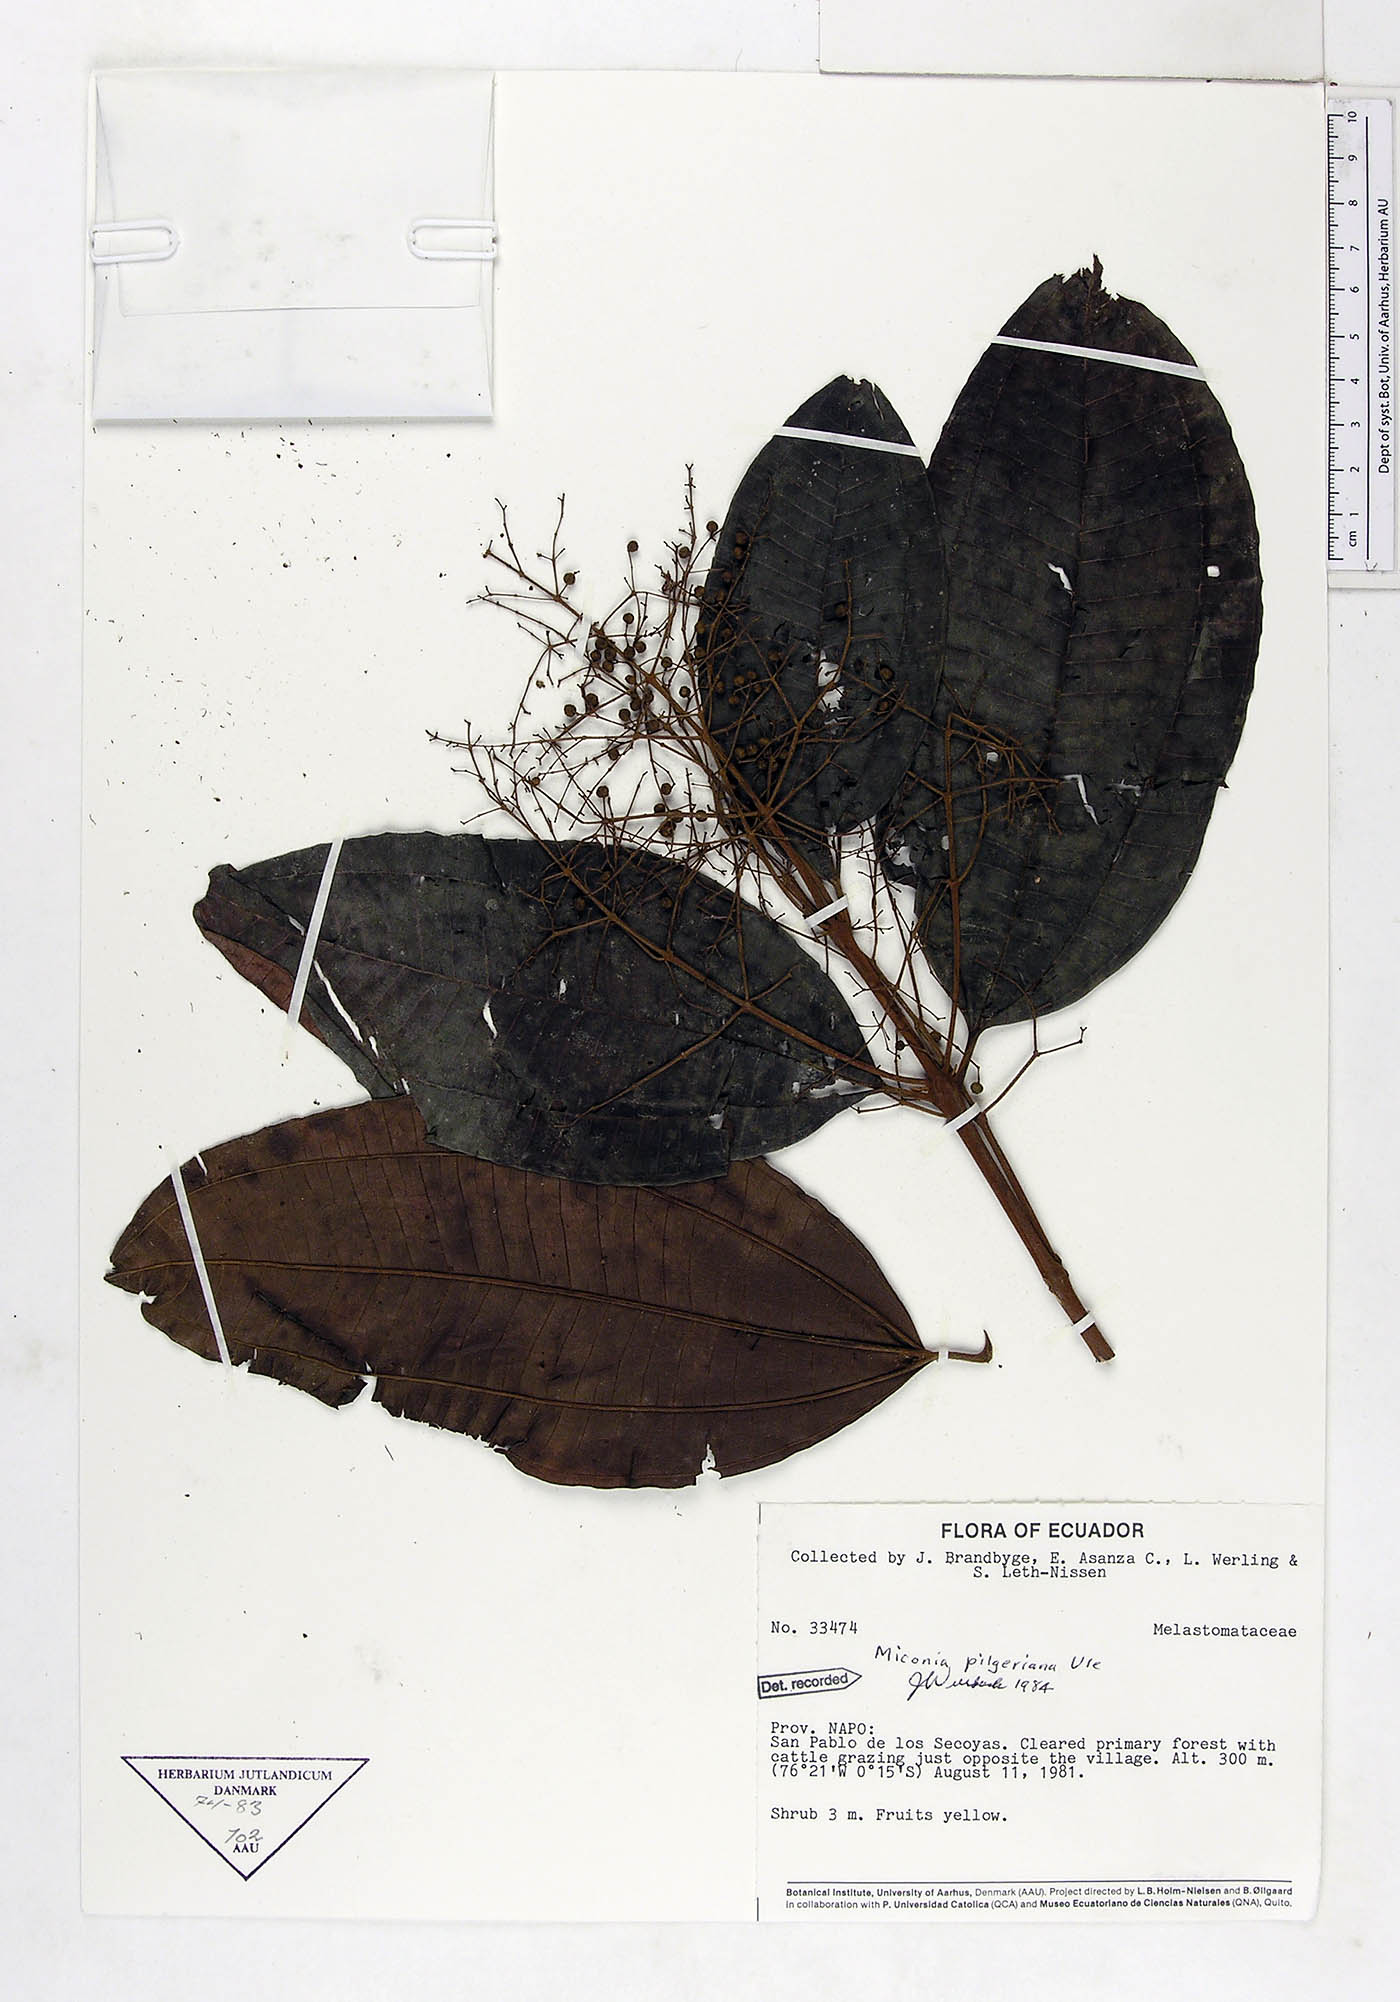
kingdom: Plantae
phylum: Tracheophyta
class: Magnoliopsida
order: Myrtales
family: Melastomataceae
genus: Miconia
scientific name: Miconia dolichorrhyncha
